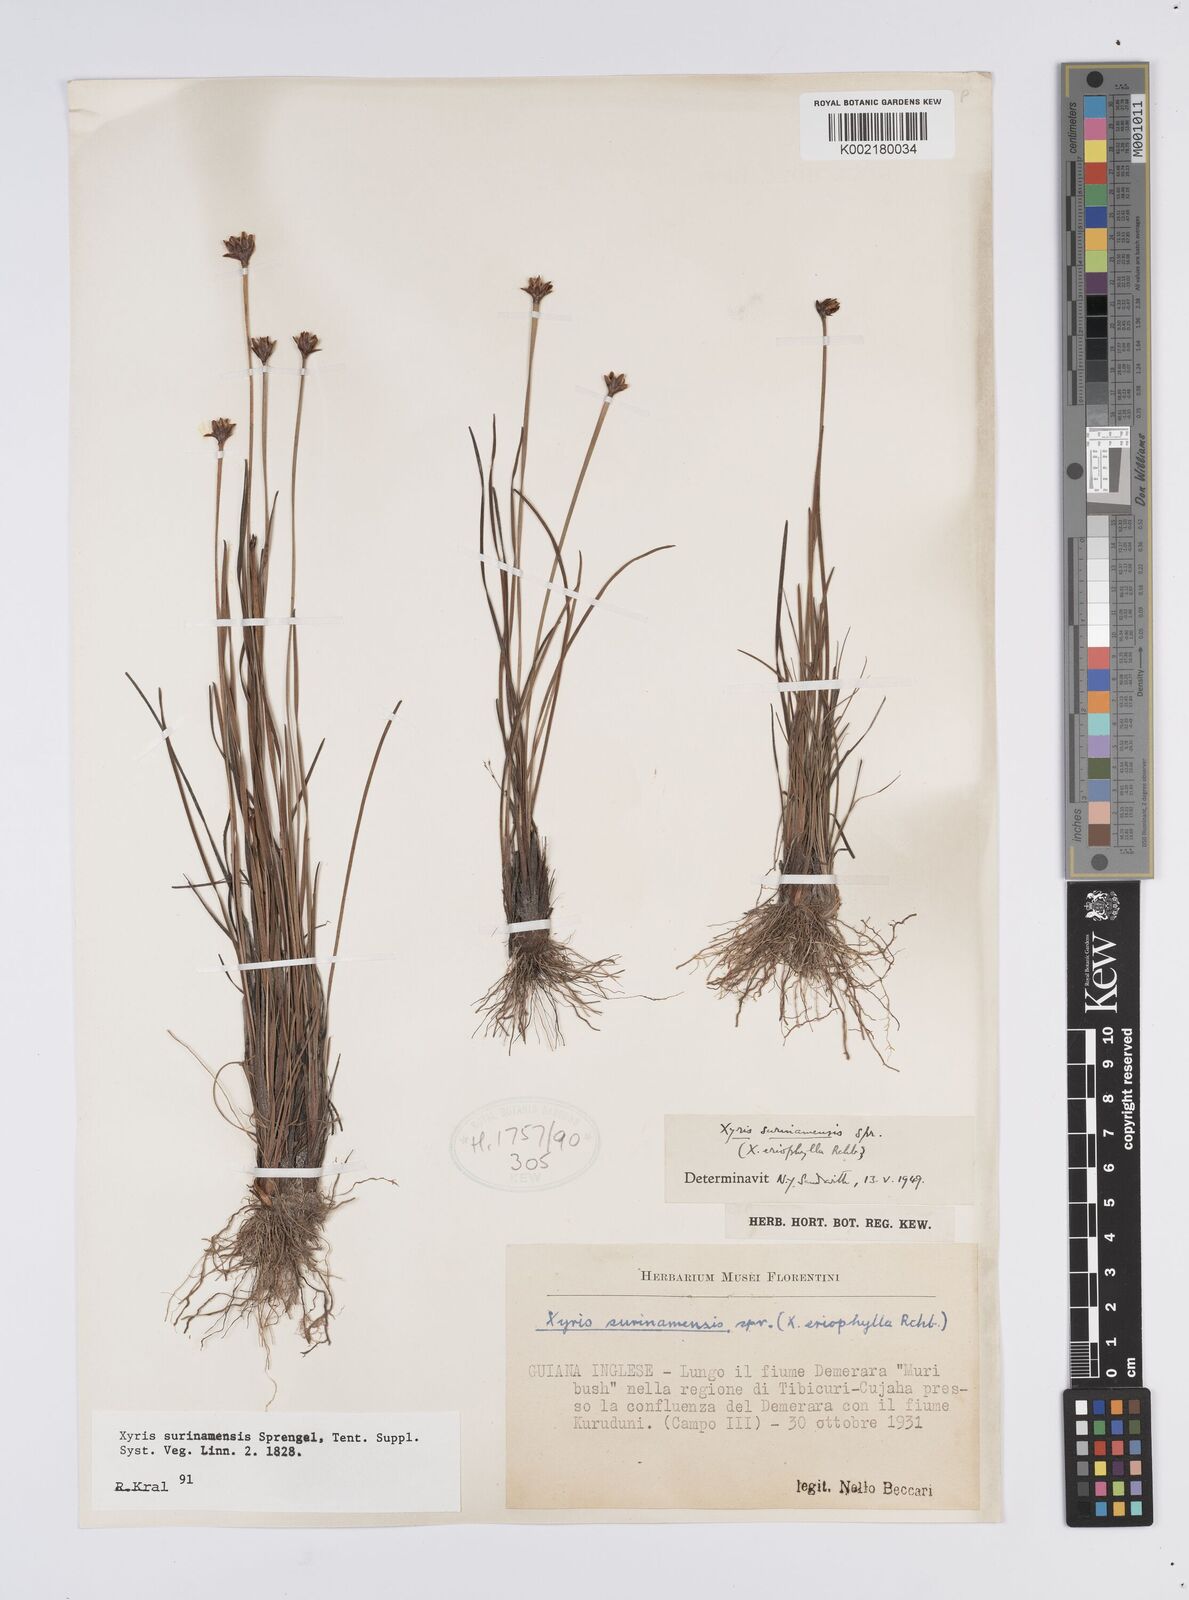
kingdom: Plantae
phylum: Tracheophyta
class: Liliopsida
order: Poales
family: Xyridaceae
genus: Xyris
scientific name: Xyris surinamensis
